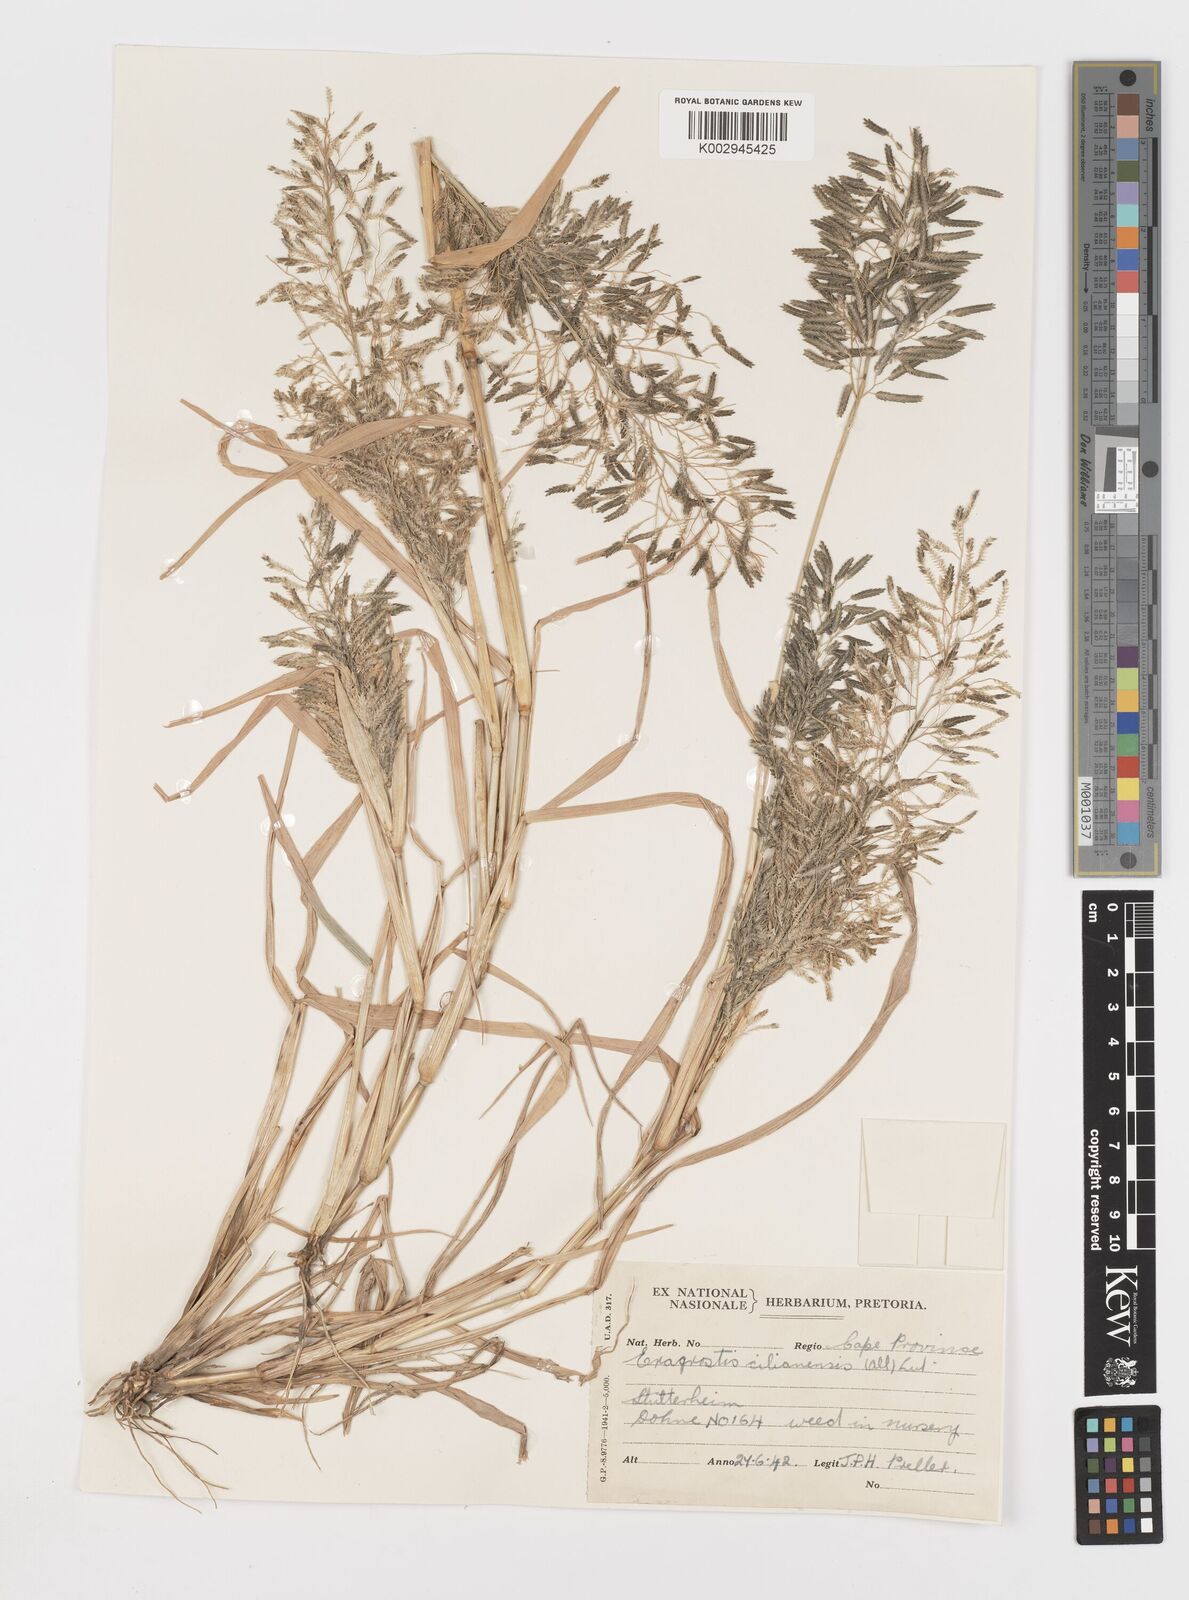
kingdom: Plantae
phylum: Tracheophyta
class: Liliopsida
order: Poales
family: Poaceae
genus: Eragrostis
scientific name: Eragrostis cilianensis
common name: Stinkgrass
